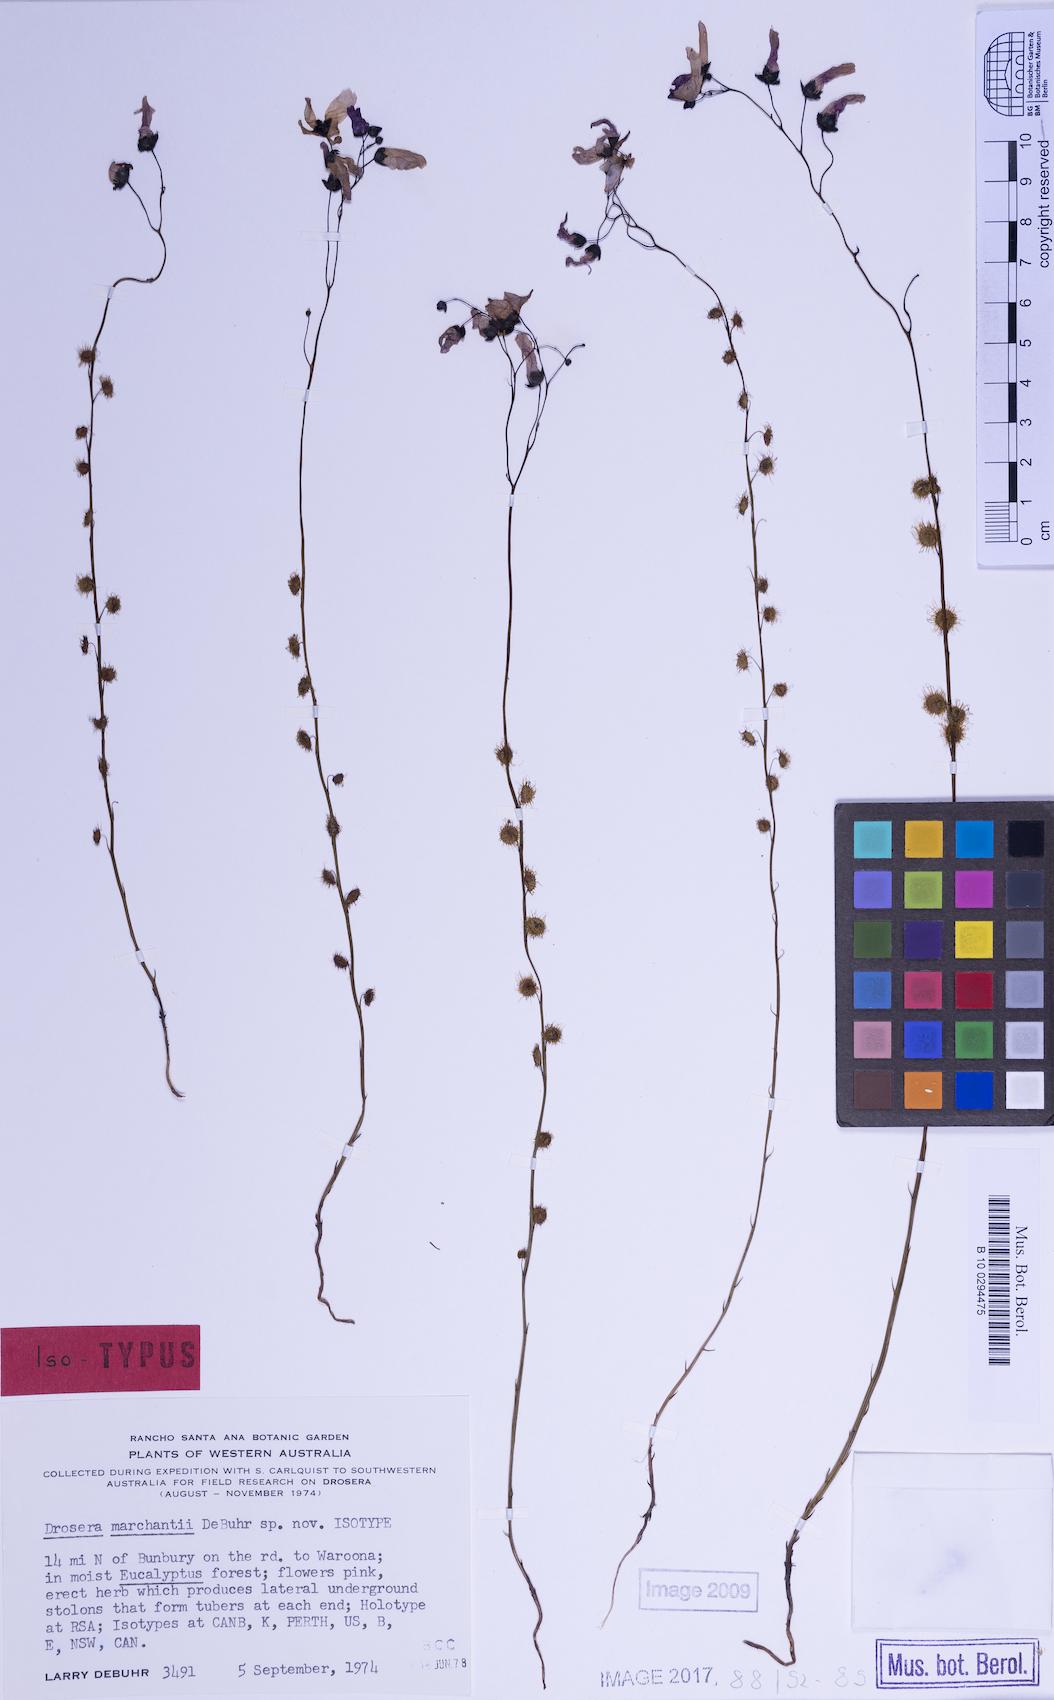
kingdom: Plantae
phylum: Tracheophyta
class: Magnoliopsida
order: Caryophyllales
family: Droseraceae
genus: Drosera
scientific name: Drosera marchantii
